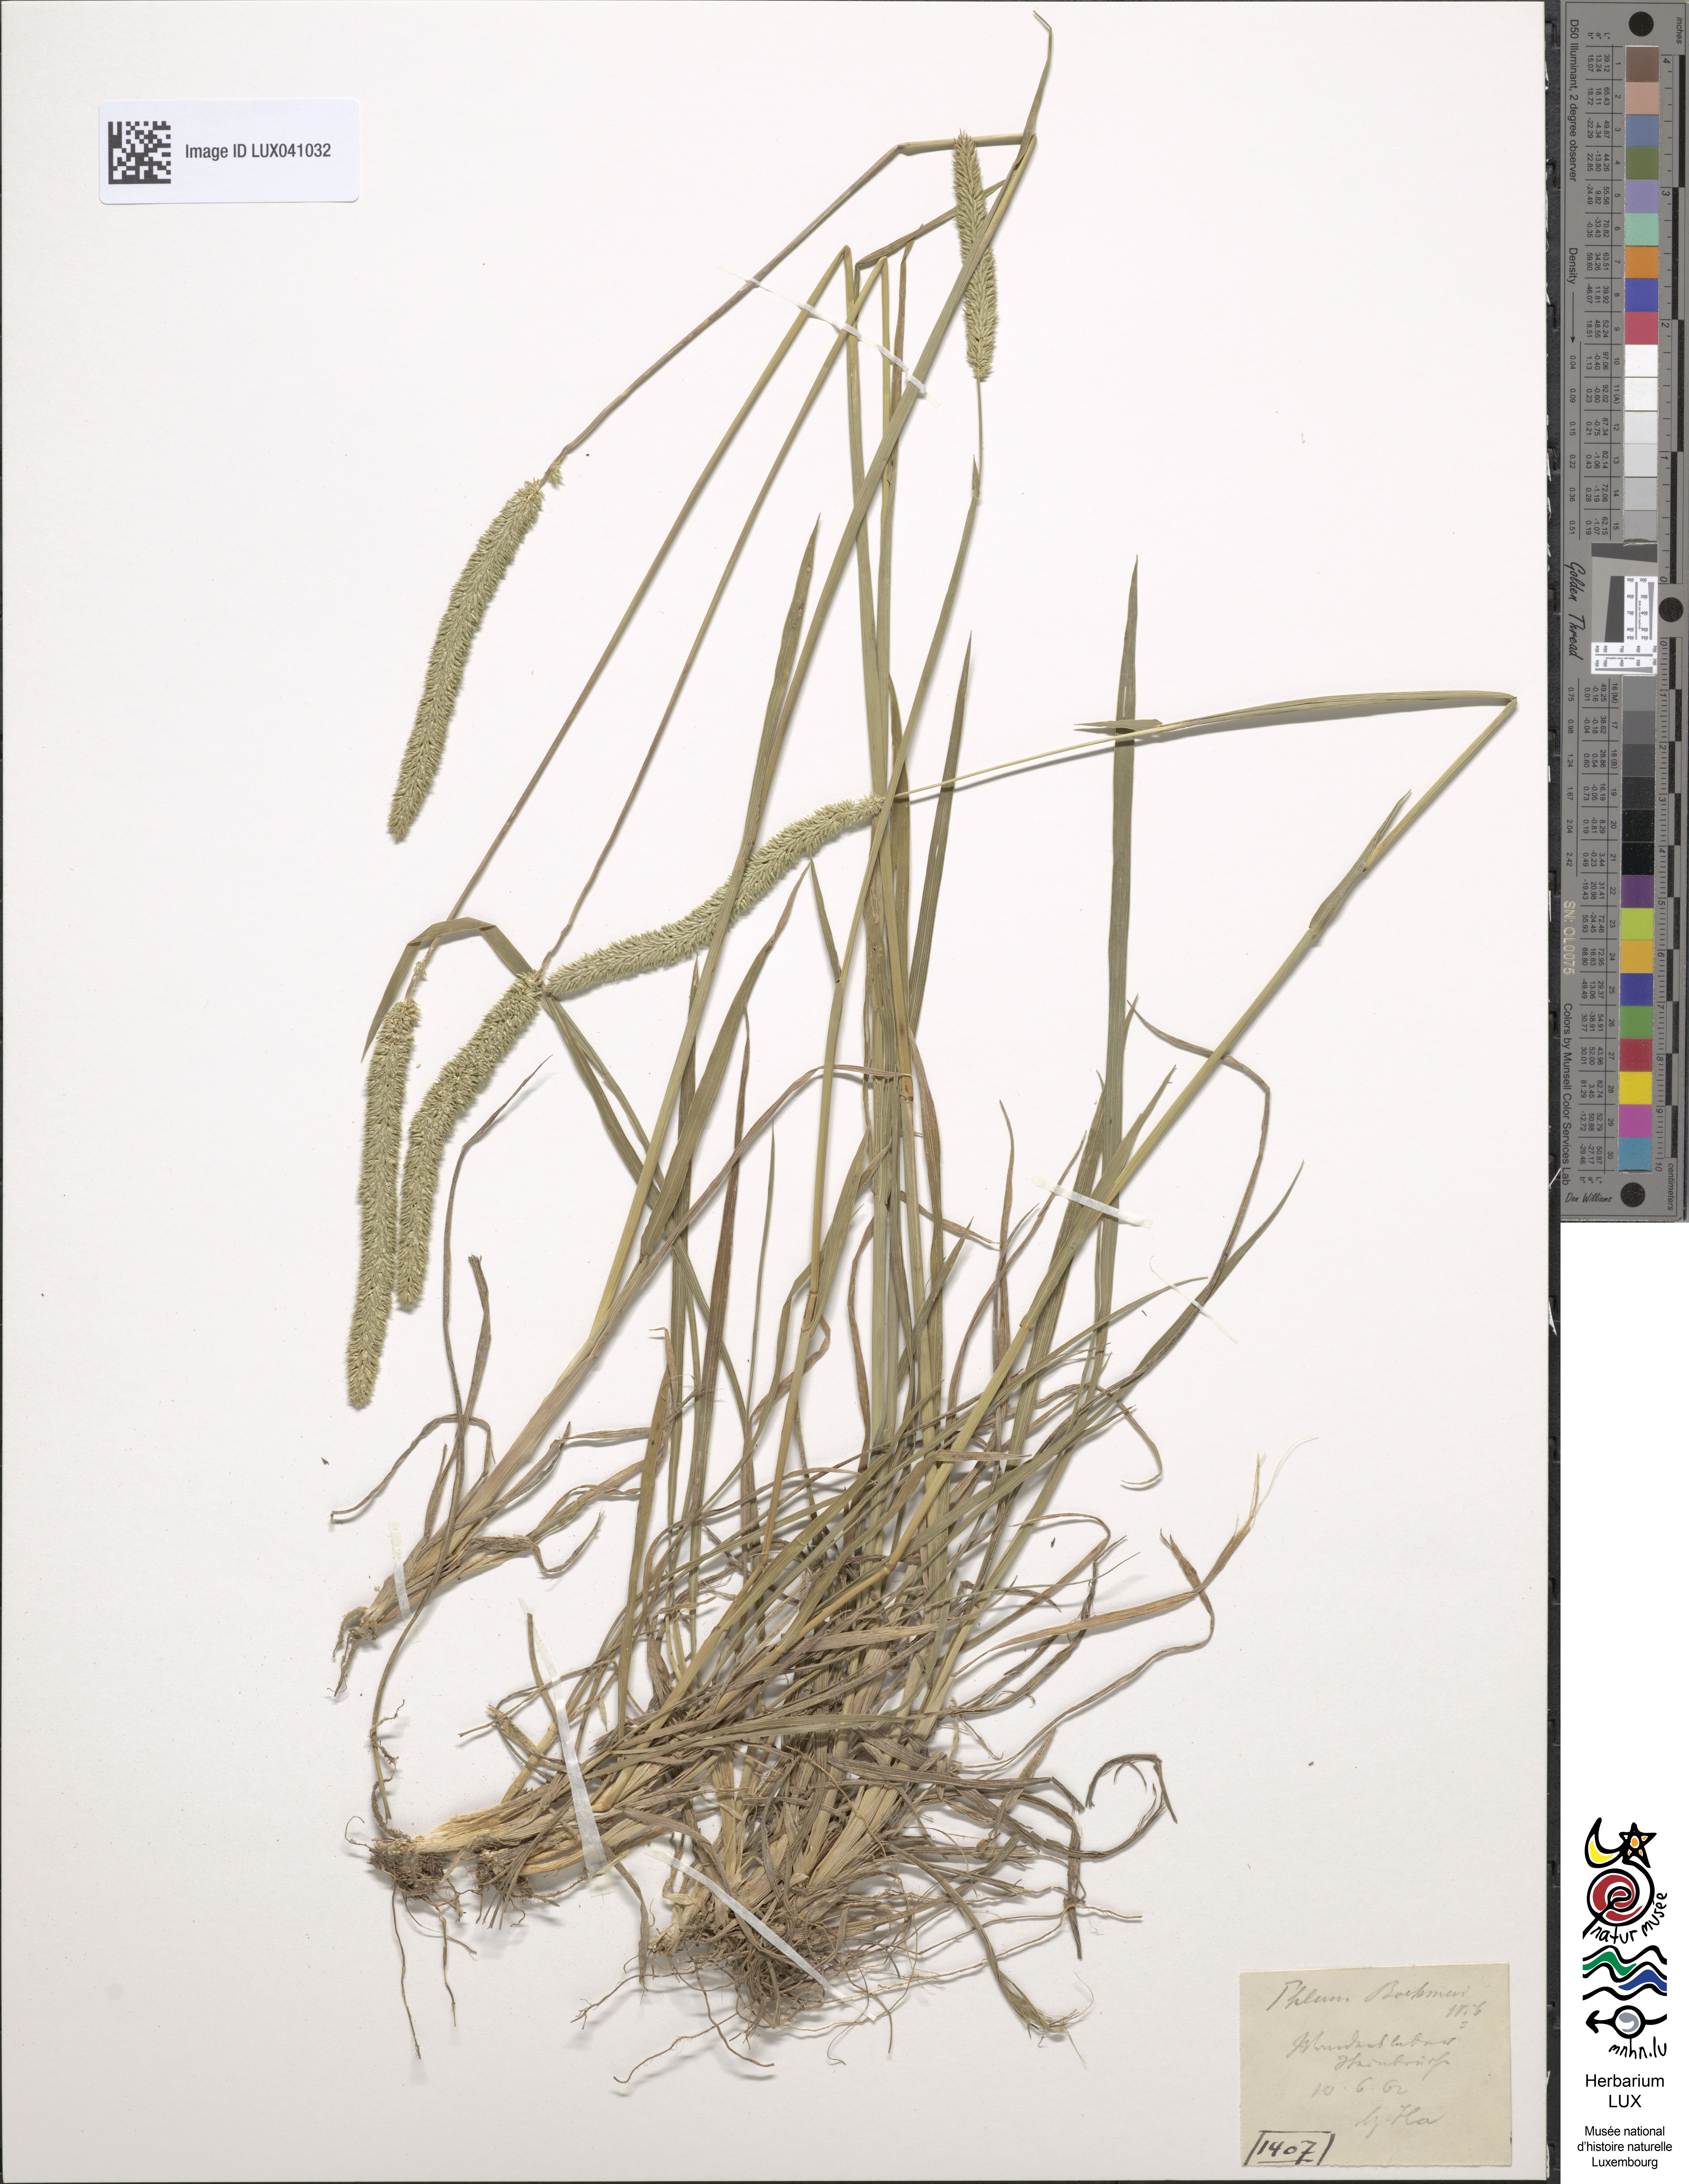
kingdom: Plantae
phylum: Tracheophyta
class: Liliopsida
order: Poales
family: Poaceae
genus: Phleum
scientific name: Phleum phleoides
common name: Purple-stem cat's-tail
